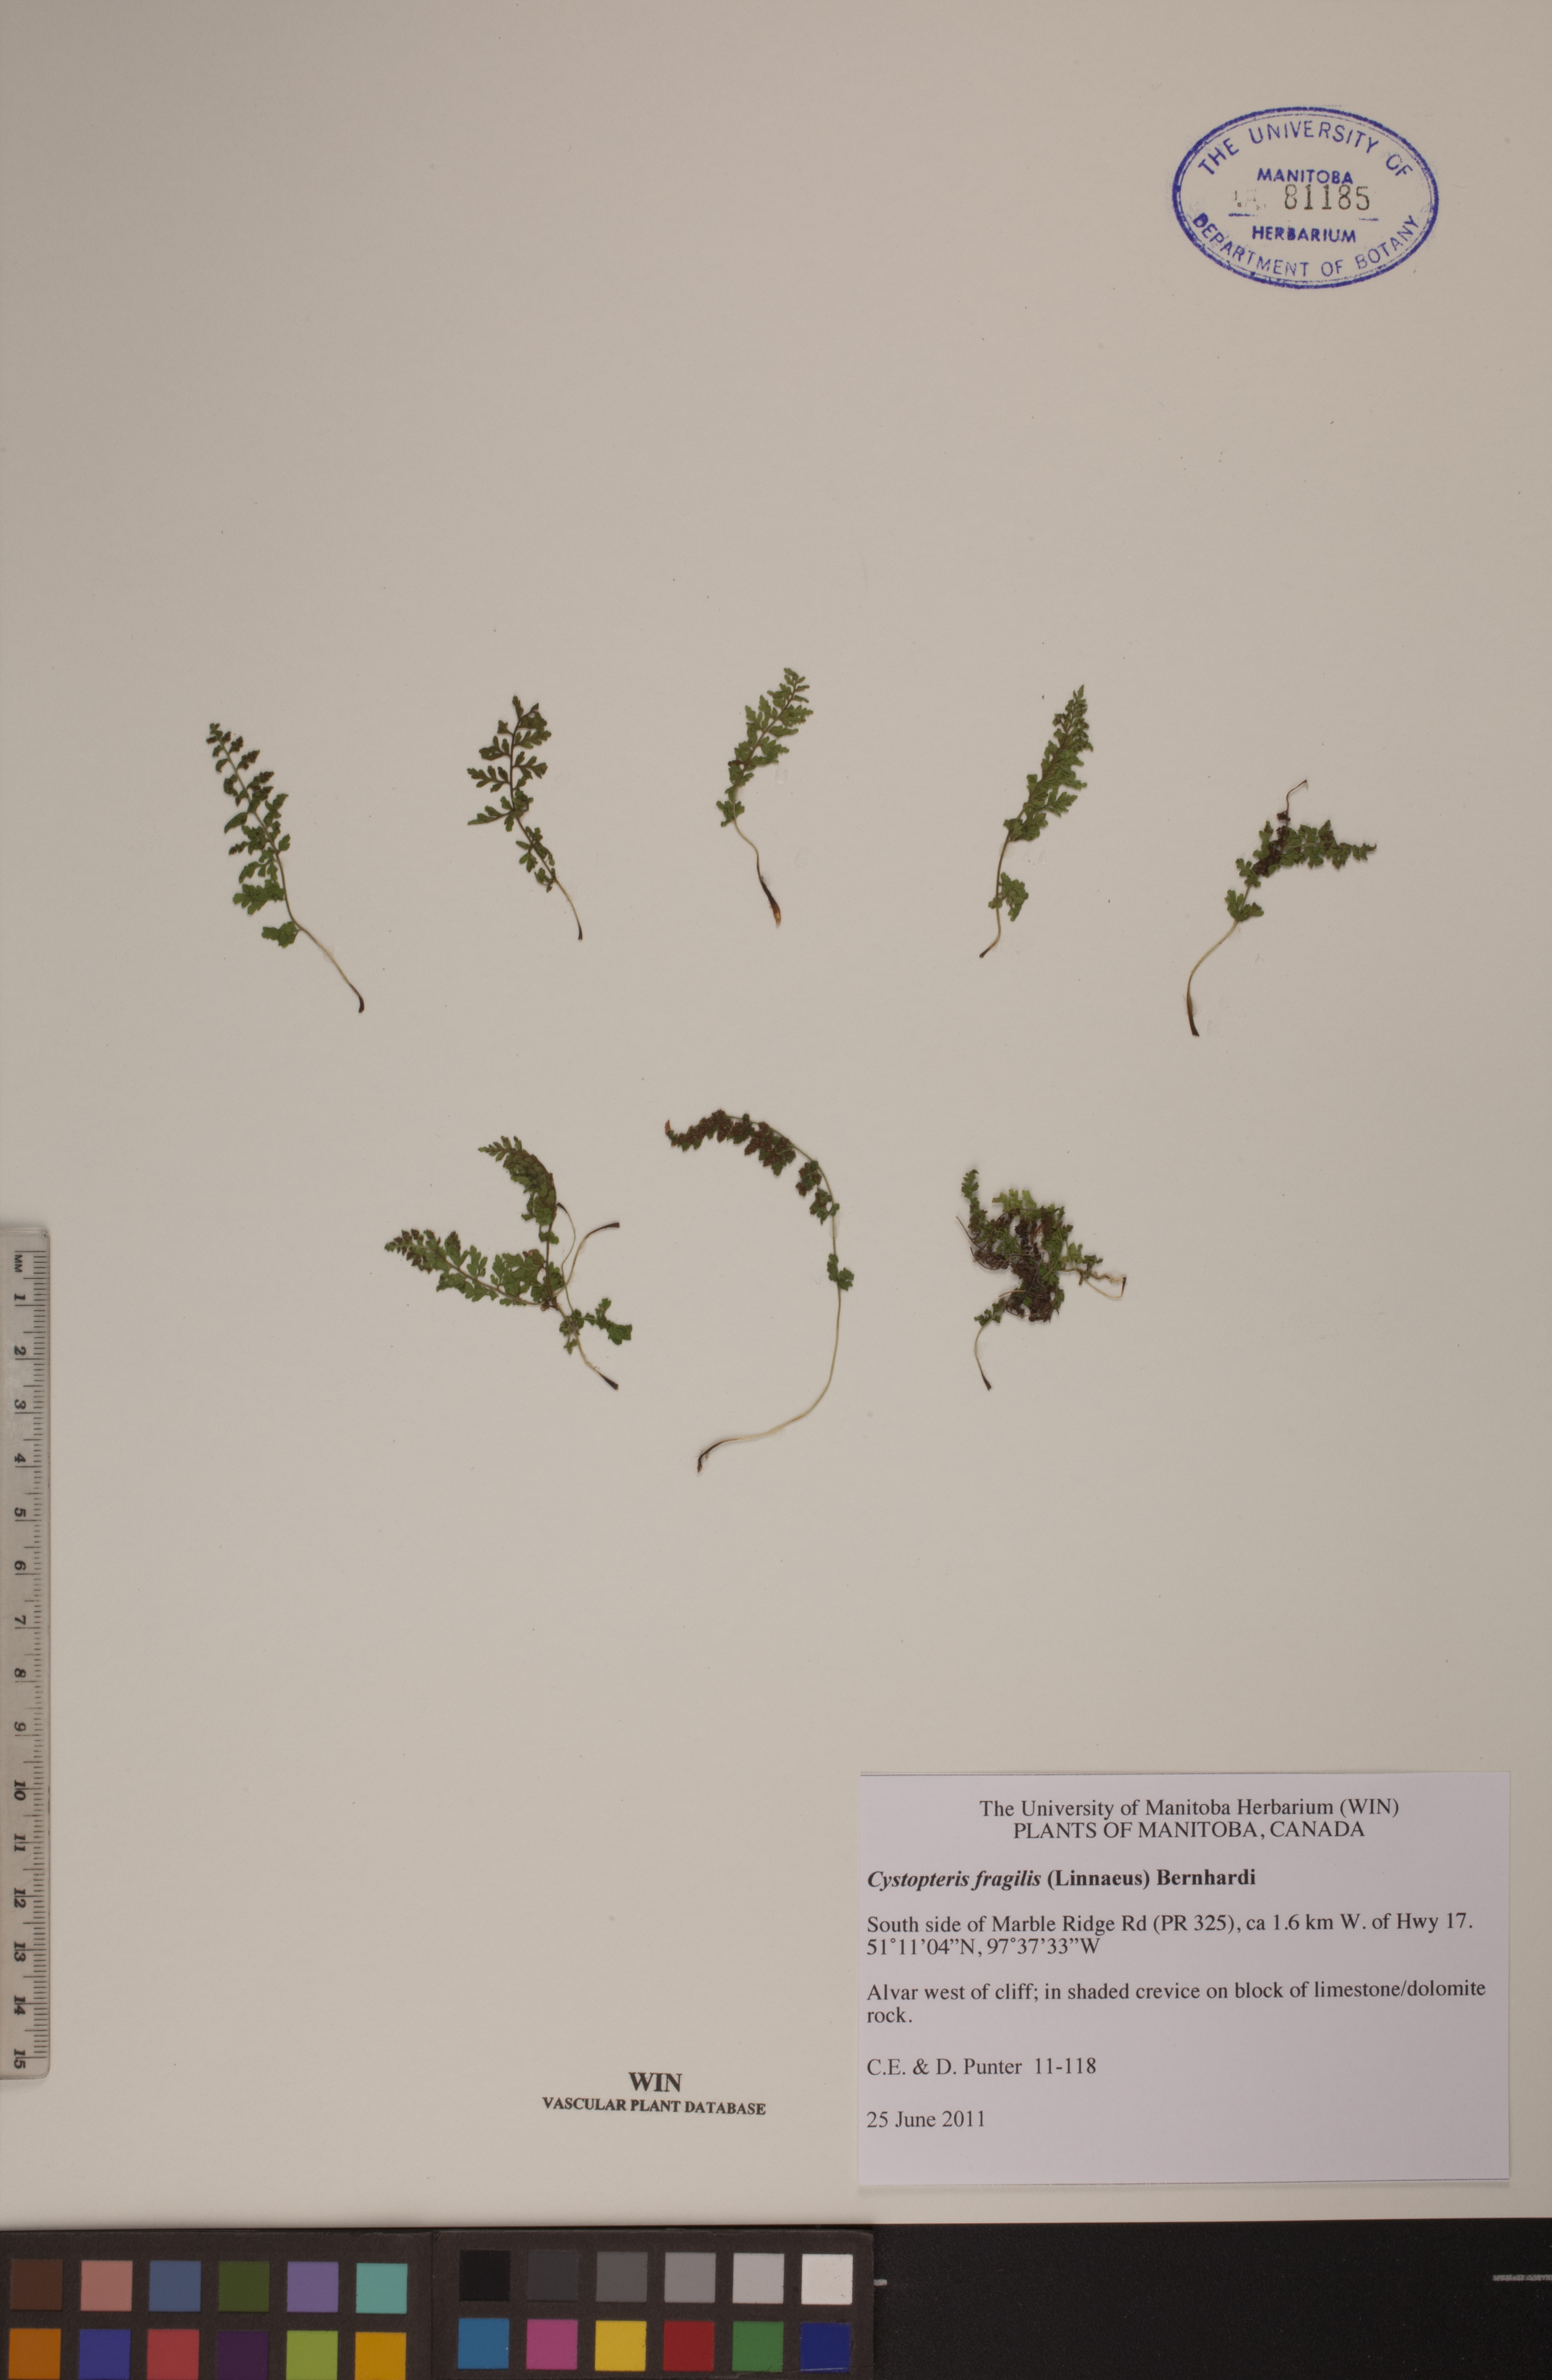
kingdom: Plantae
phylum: Tracheophyta
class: Polypodiopsida
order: Polypodiales
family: Cystopteridaceae
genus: Cystopteris
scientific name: Cystopteris fragilis
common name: Brittle bladder fern
